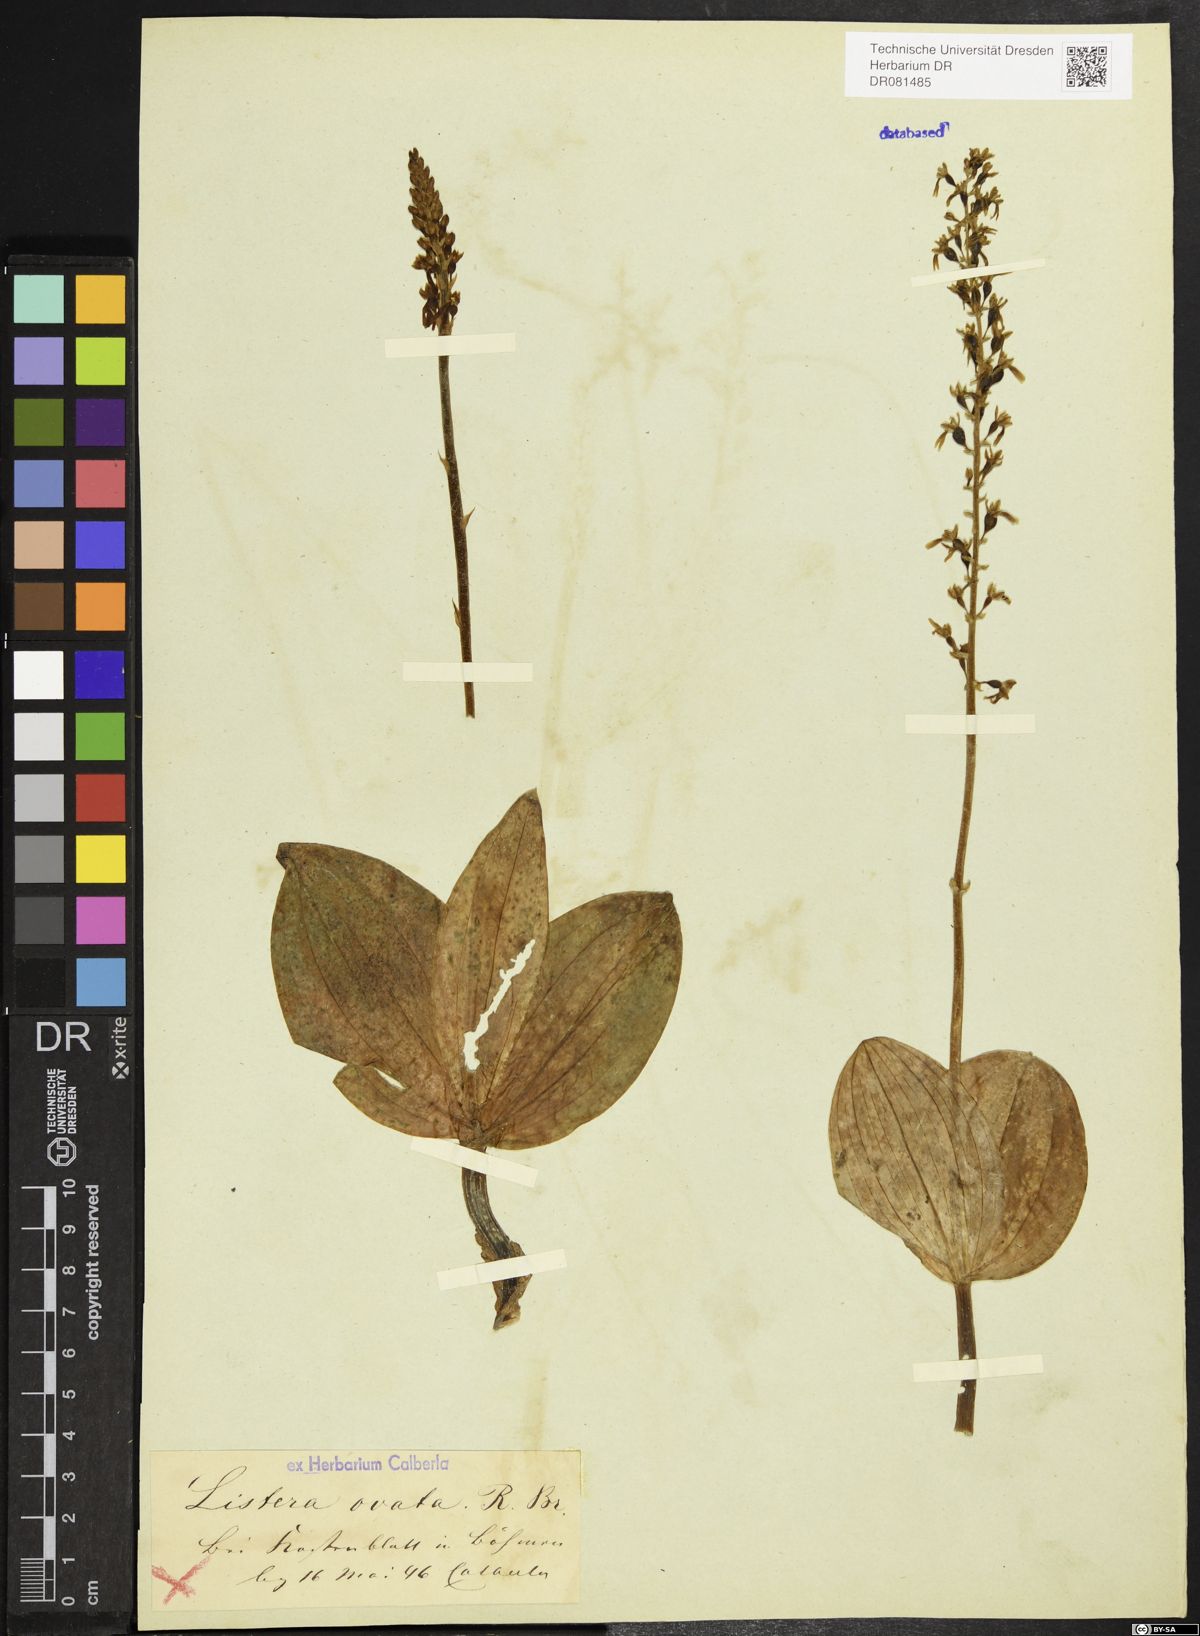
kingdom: Plantae
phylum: Tracheophyta
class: Liliopsida
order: Asparagales
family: Orchidaceae
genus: Neottia
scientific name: Neottia ovata
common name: Common twayblade
